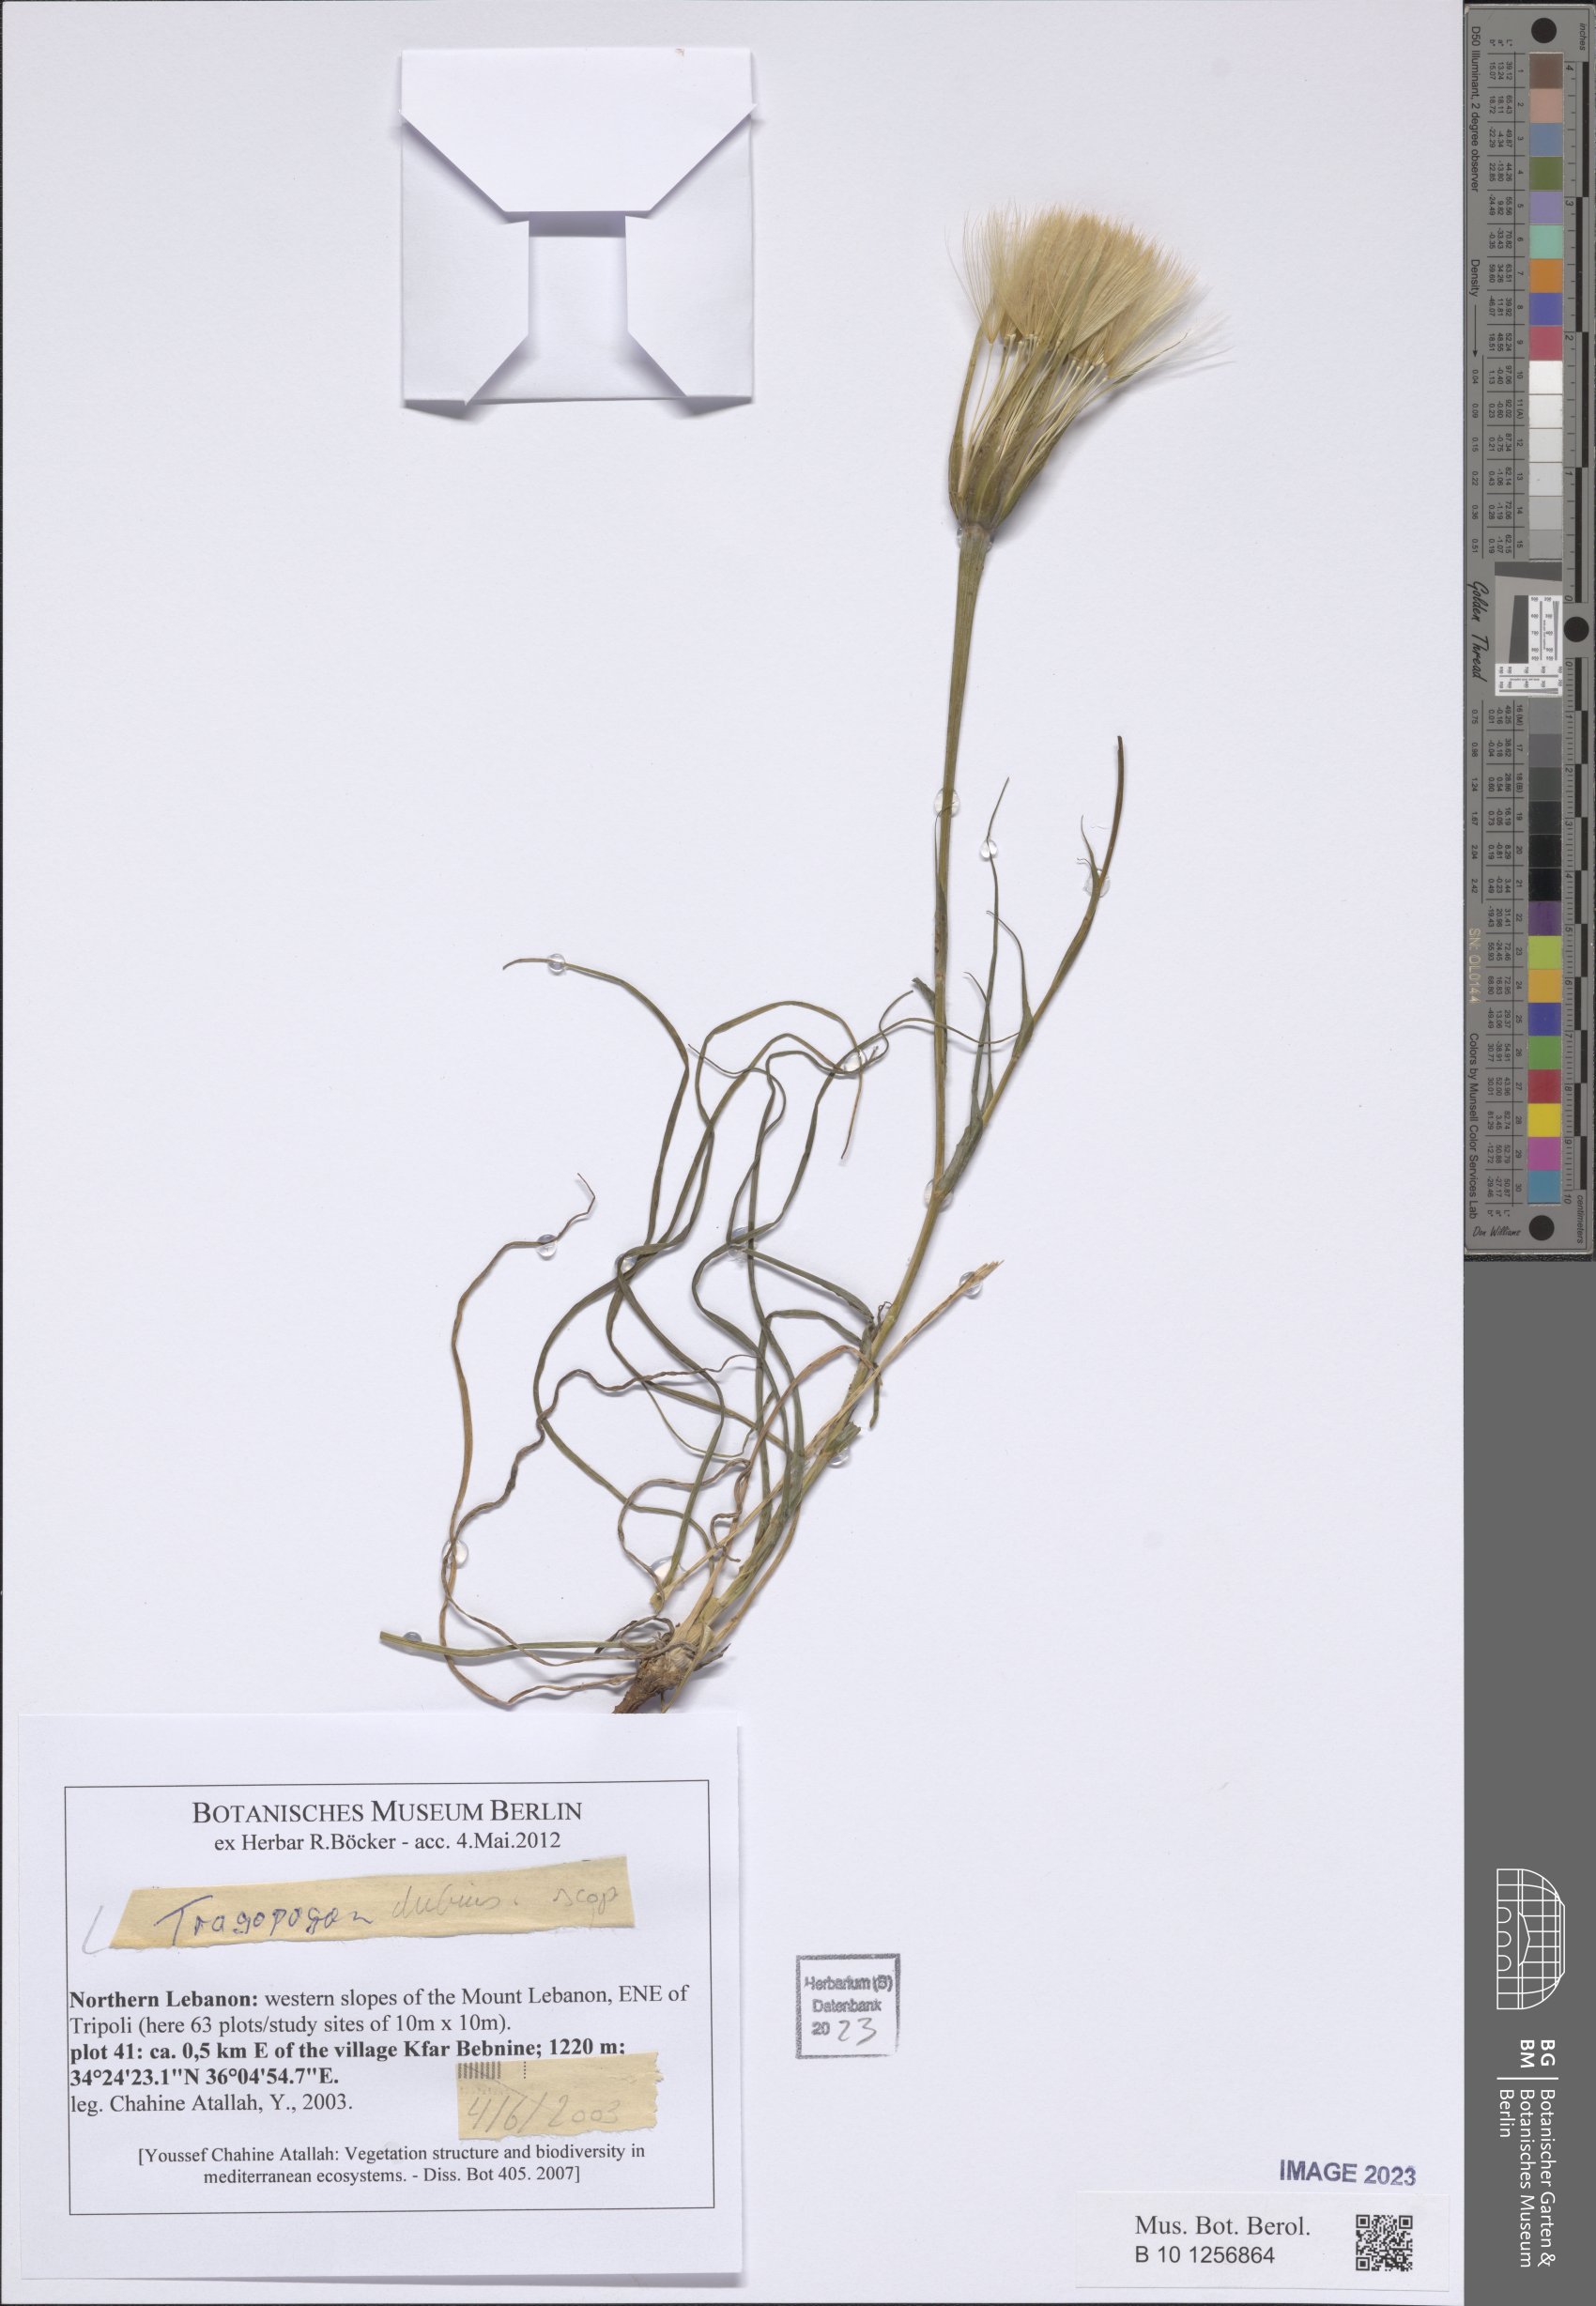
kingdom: Plantae
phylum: Tracheophyta
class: Magnoliopsida
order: Asterales
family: Asteraceae
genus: Tragopogon
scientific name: Tragopogon dubius
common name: Yellow salsify
